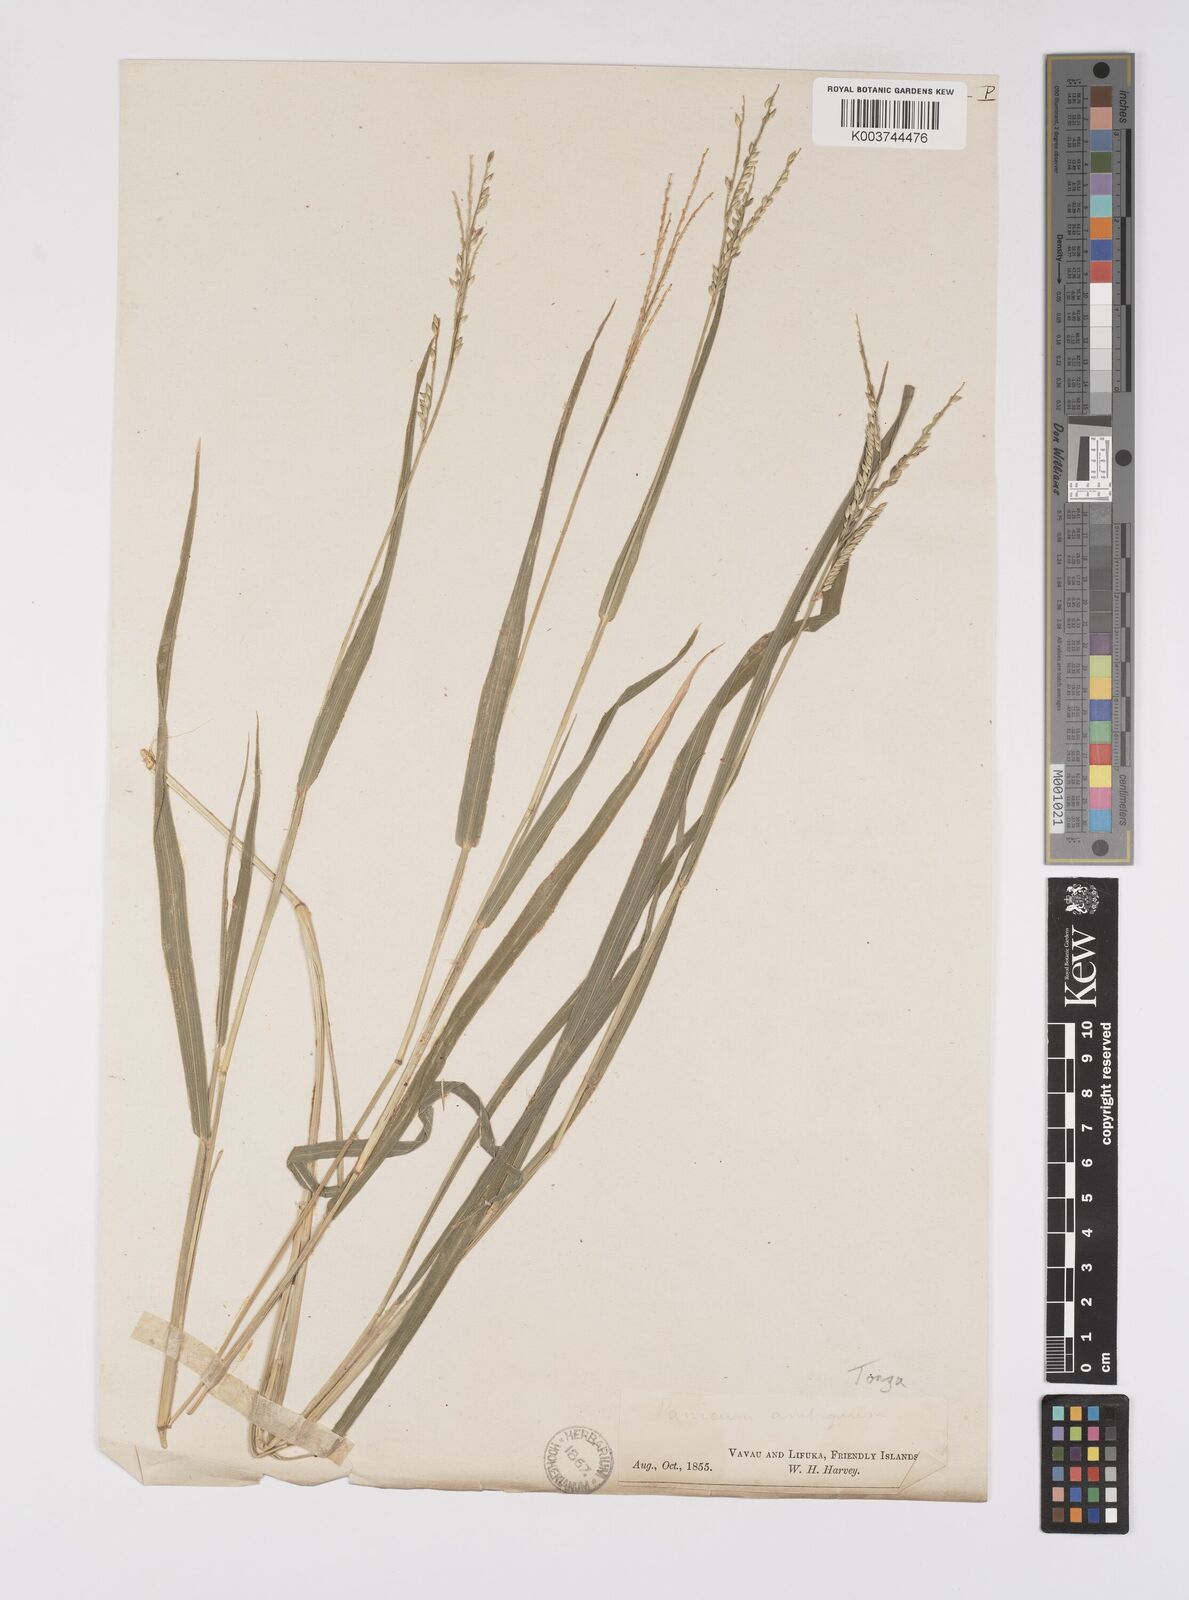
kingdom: Plantae
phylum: Tracheophyta
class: Liliopsida
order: Poales
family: Poaceae
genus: Urochloa
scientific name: Urochloa glumaris
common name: Thurston grass
